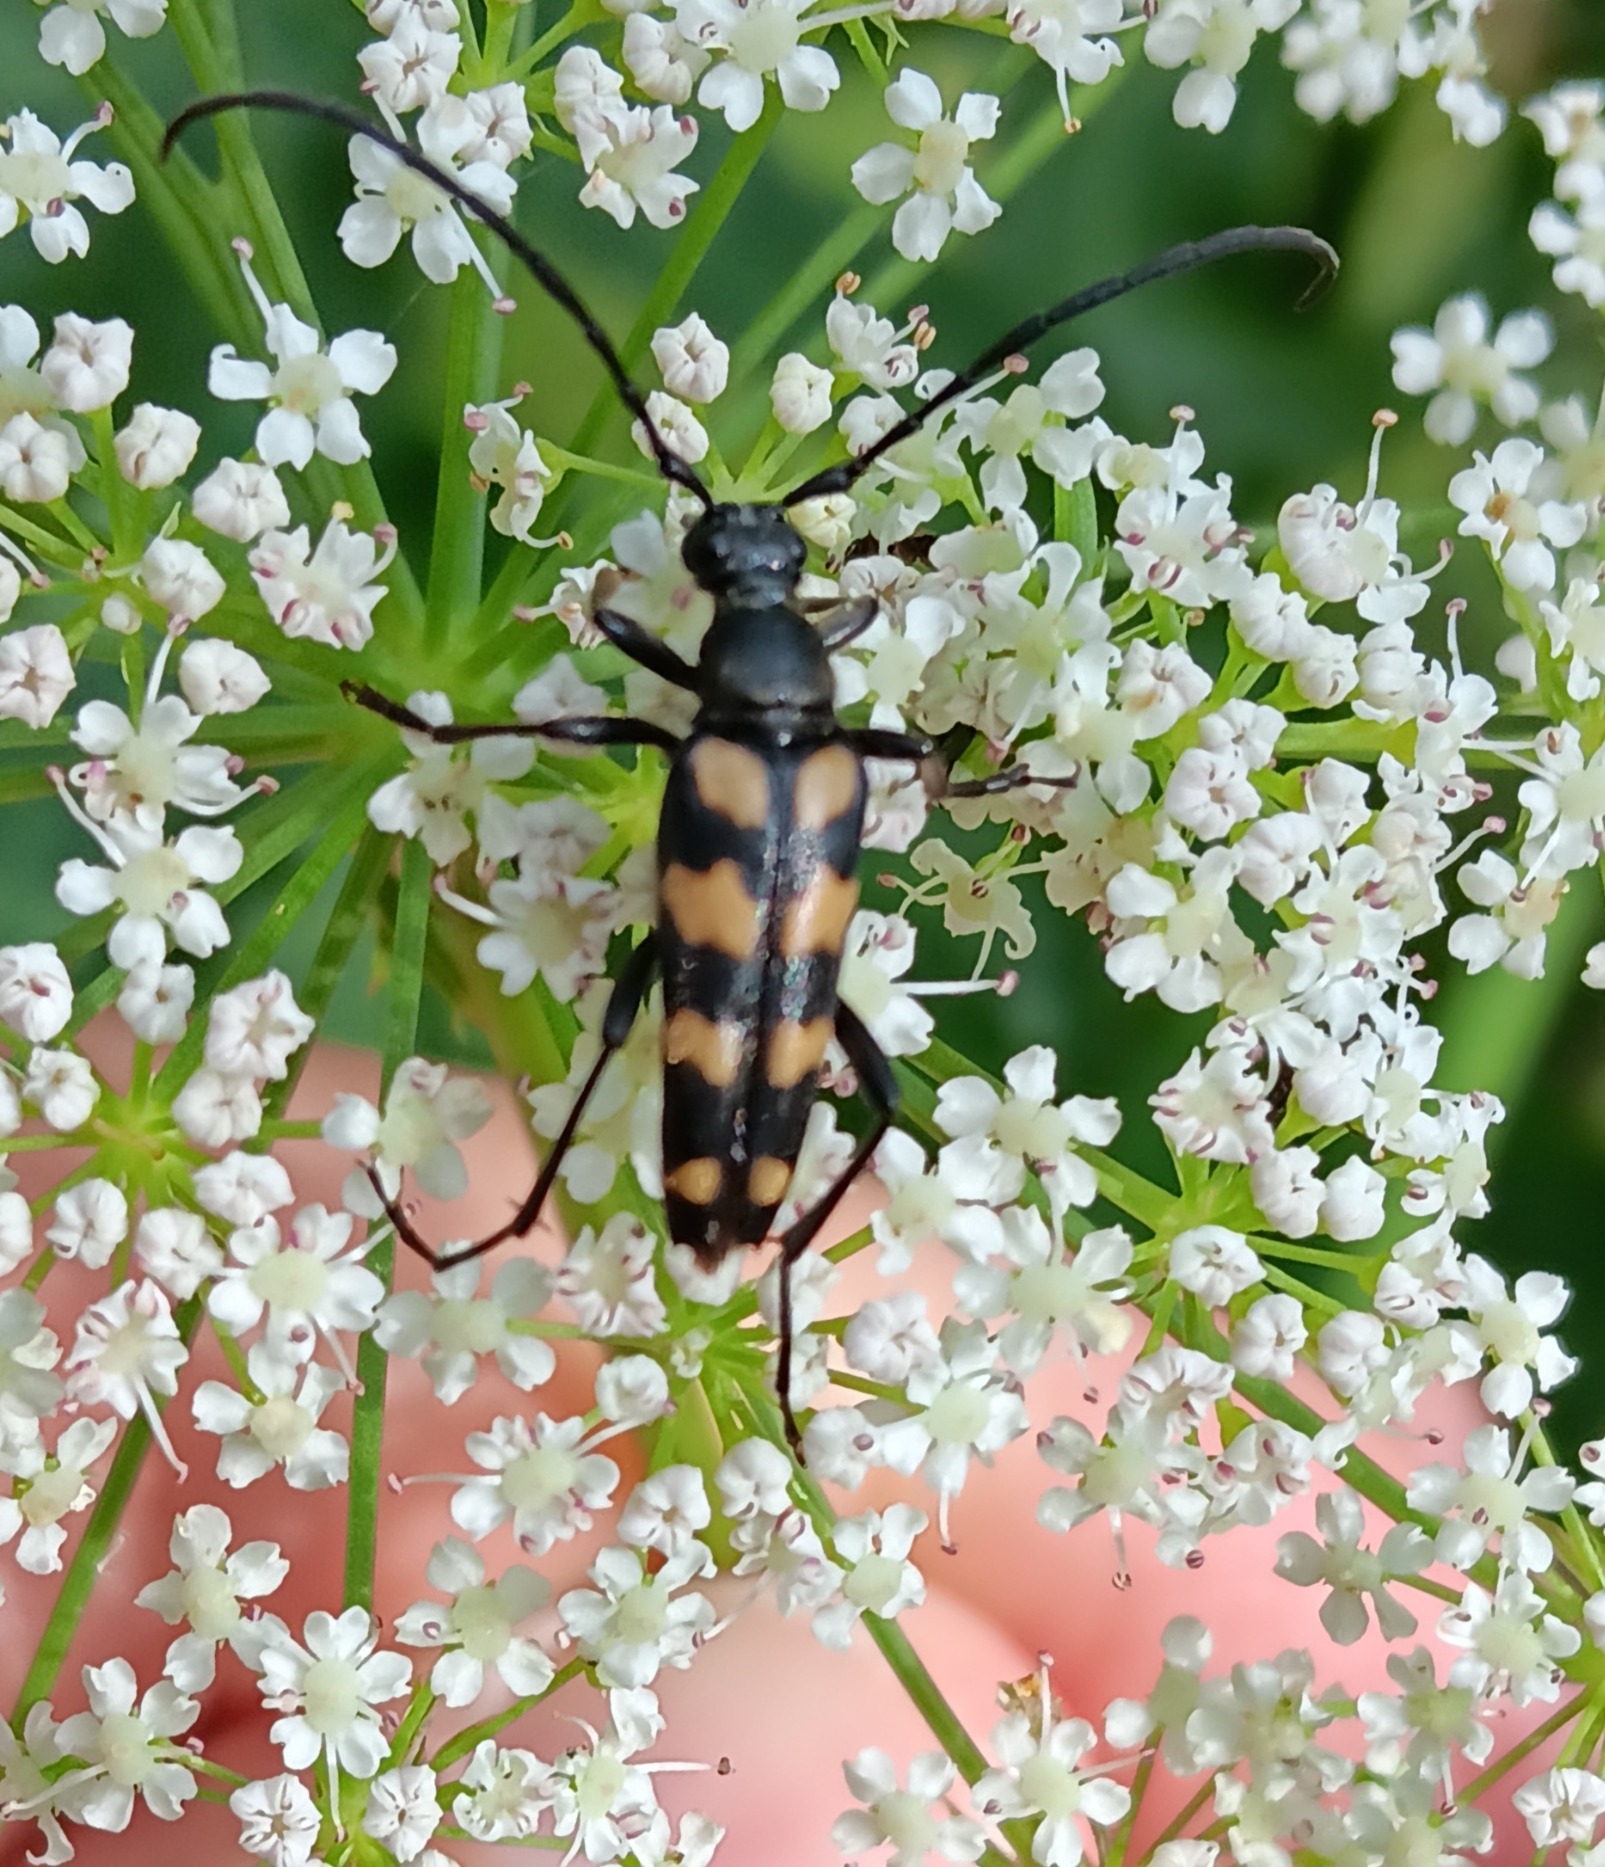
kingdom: Animalia
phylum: Arthropoda
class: Insecta
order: Coleoptera
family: Cerambycidae
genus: Leptura
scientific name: Leptura quadrifasciata
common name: Firebåndet blomsterbuk
